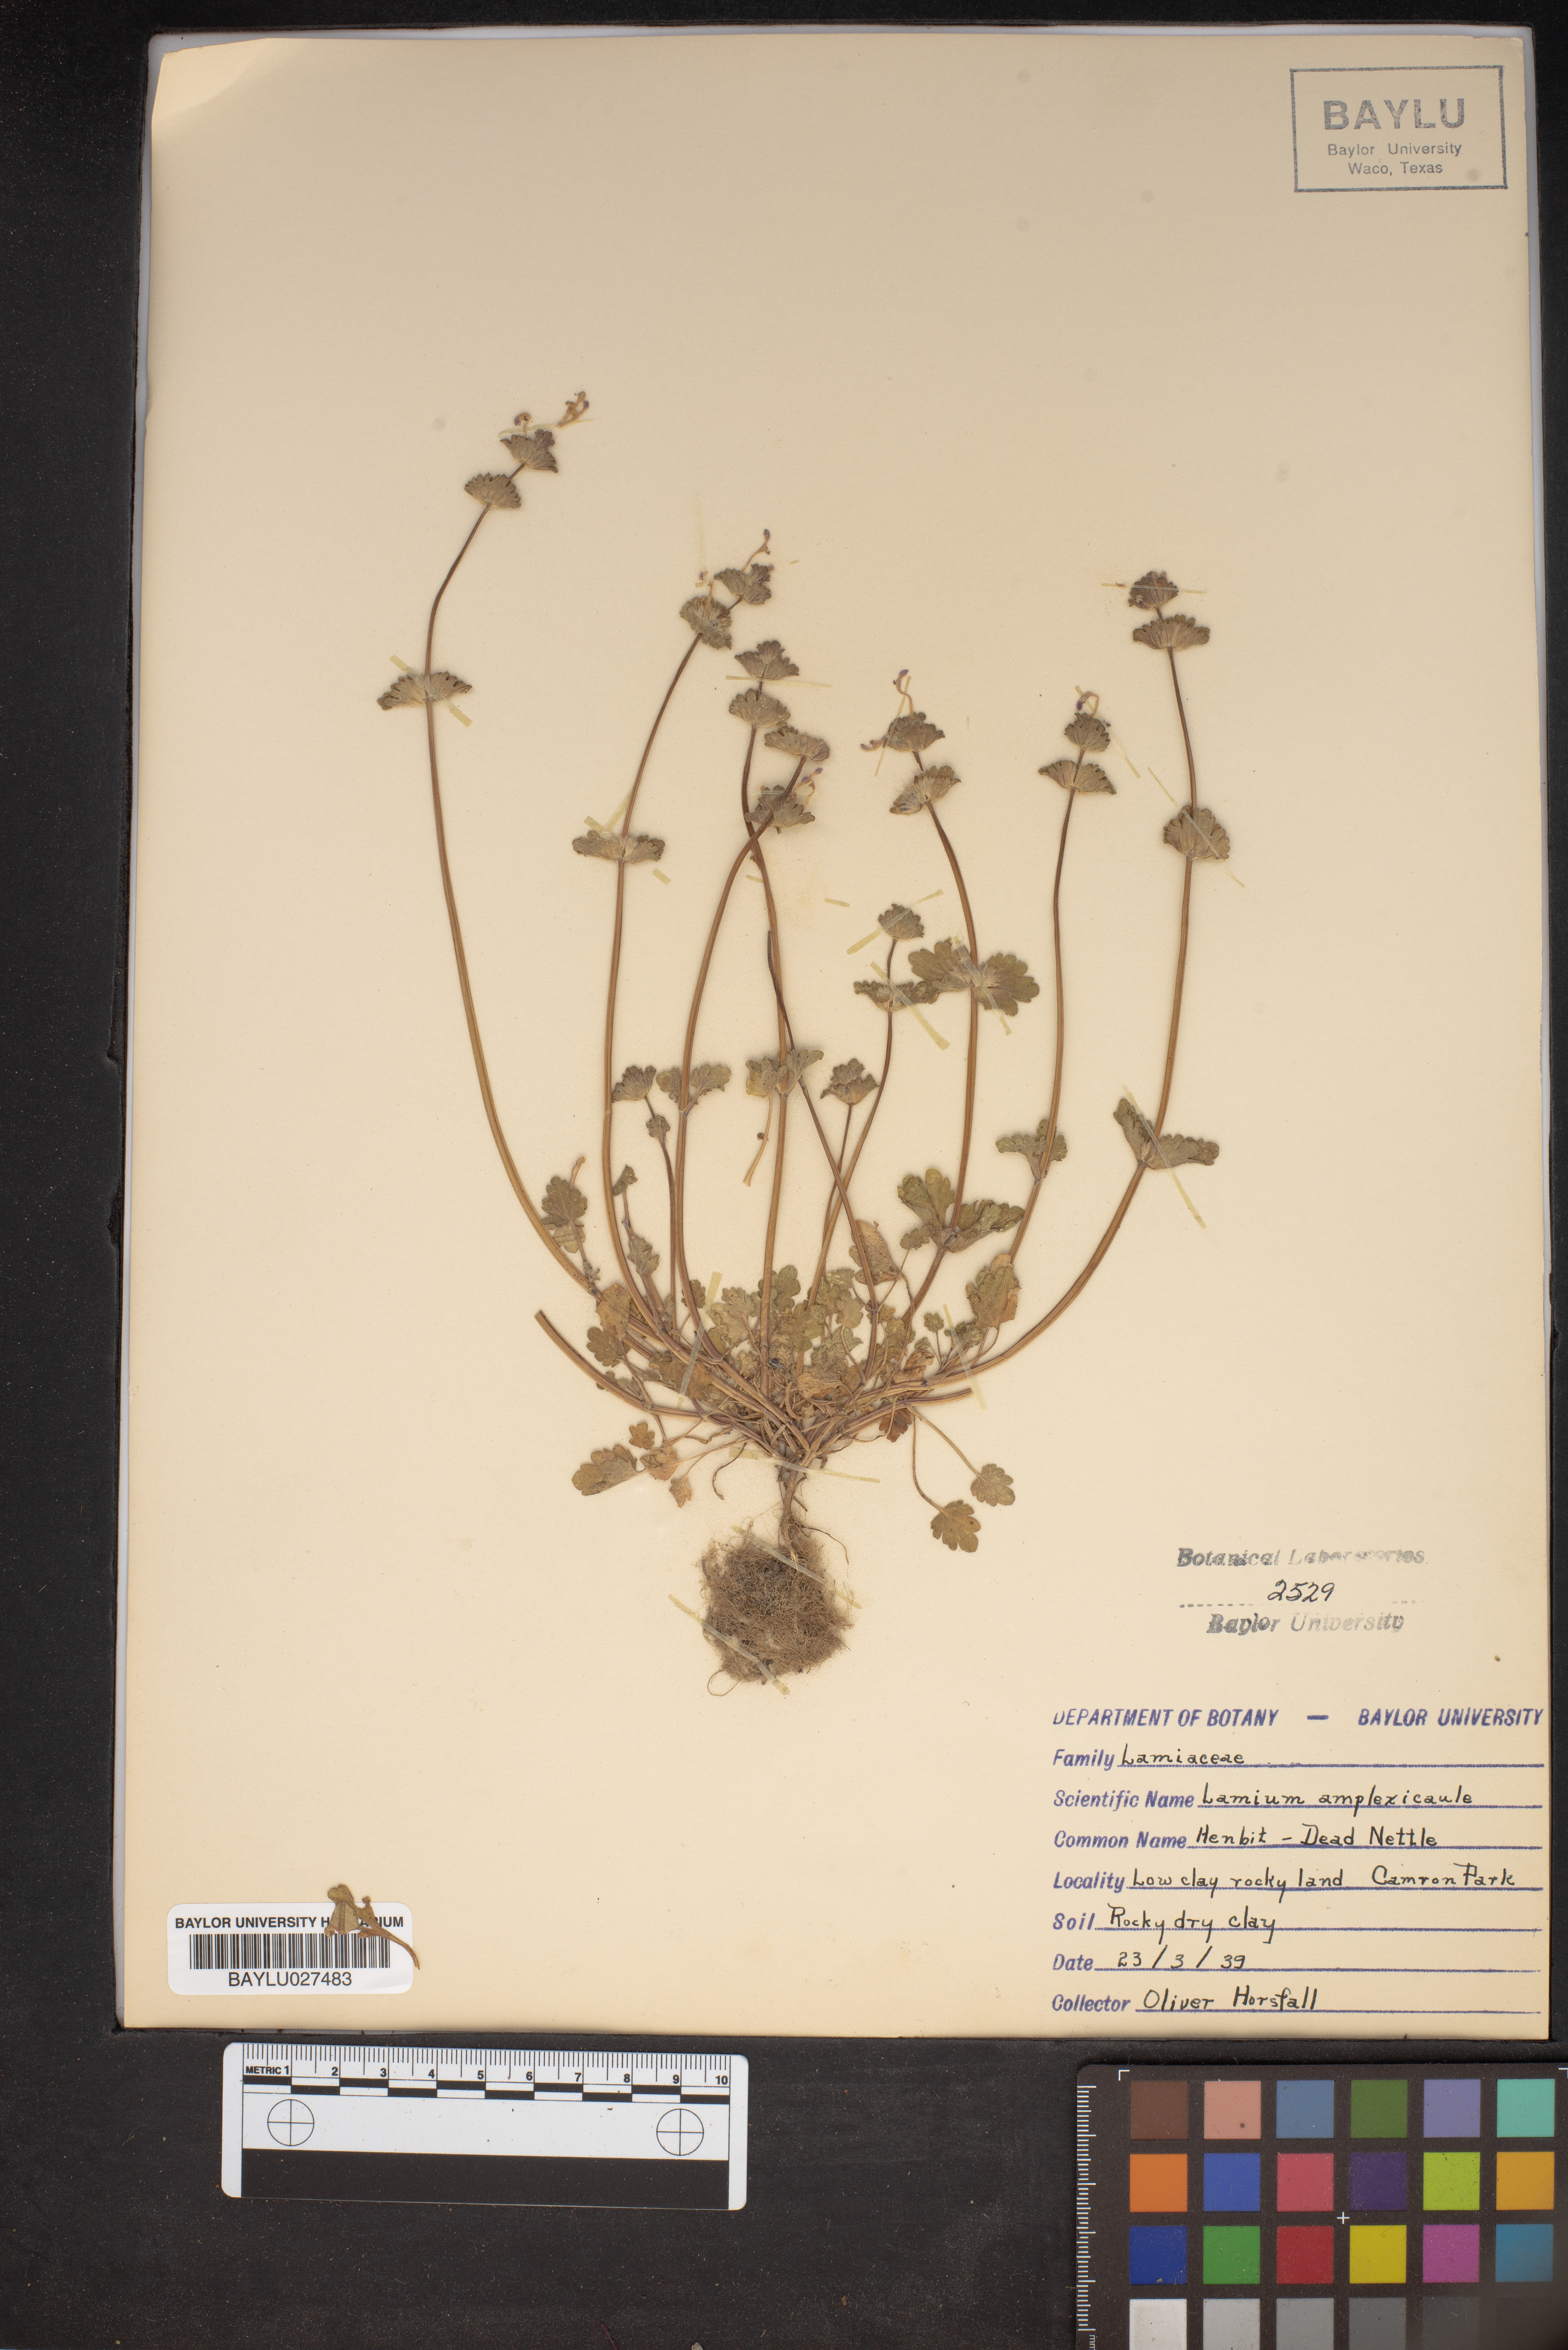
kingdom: Plantae
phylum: Tracheophyta
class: Magnoliopsida
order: Lamiales
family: Lamiaceae
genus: Lamium
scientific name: Lamium amplexicaule
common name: Henbit dead-nettle
